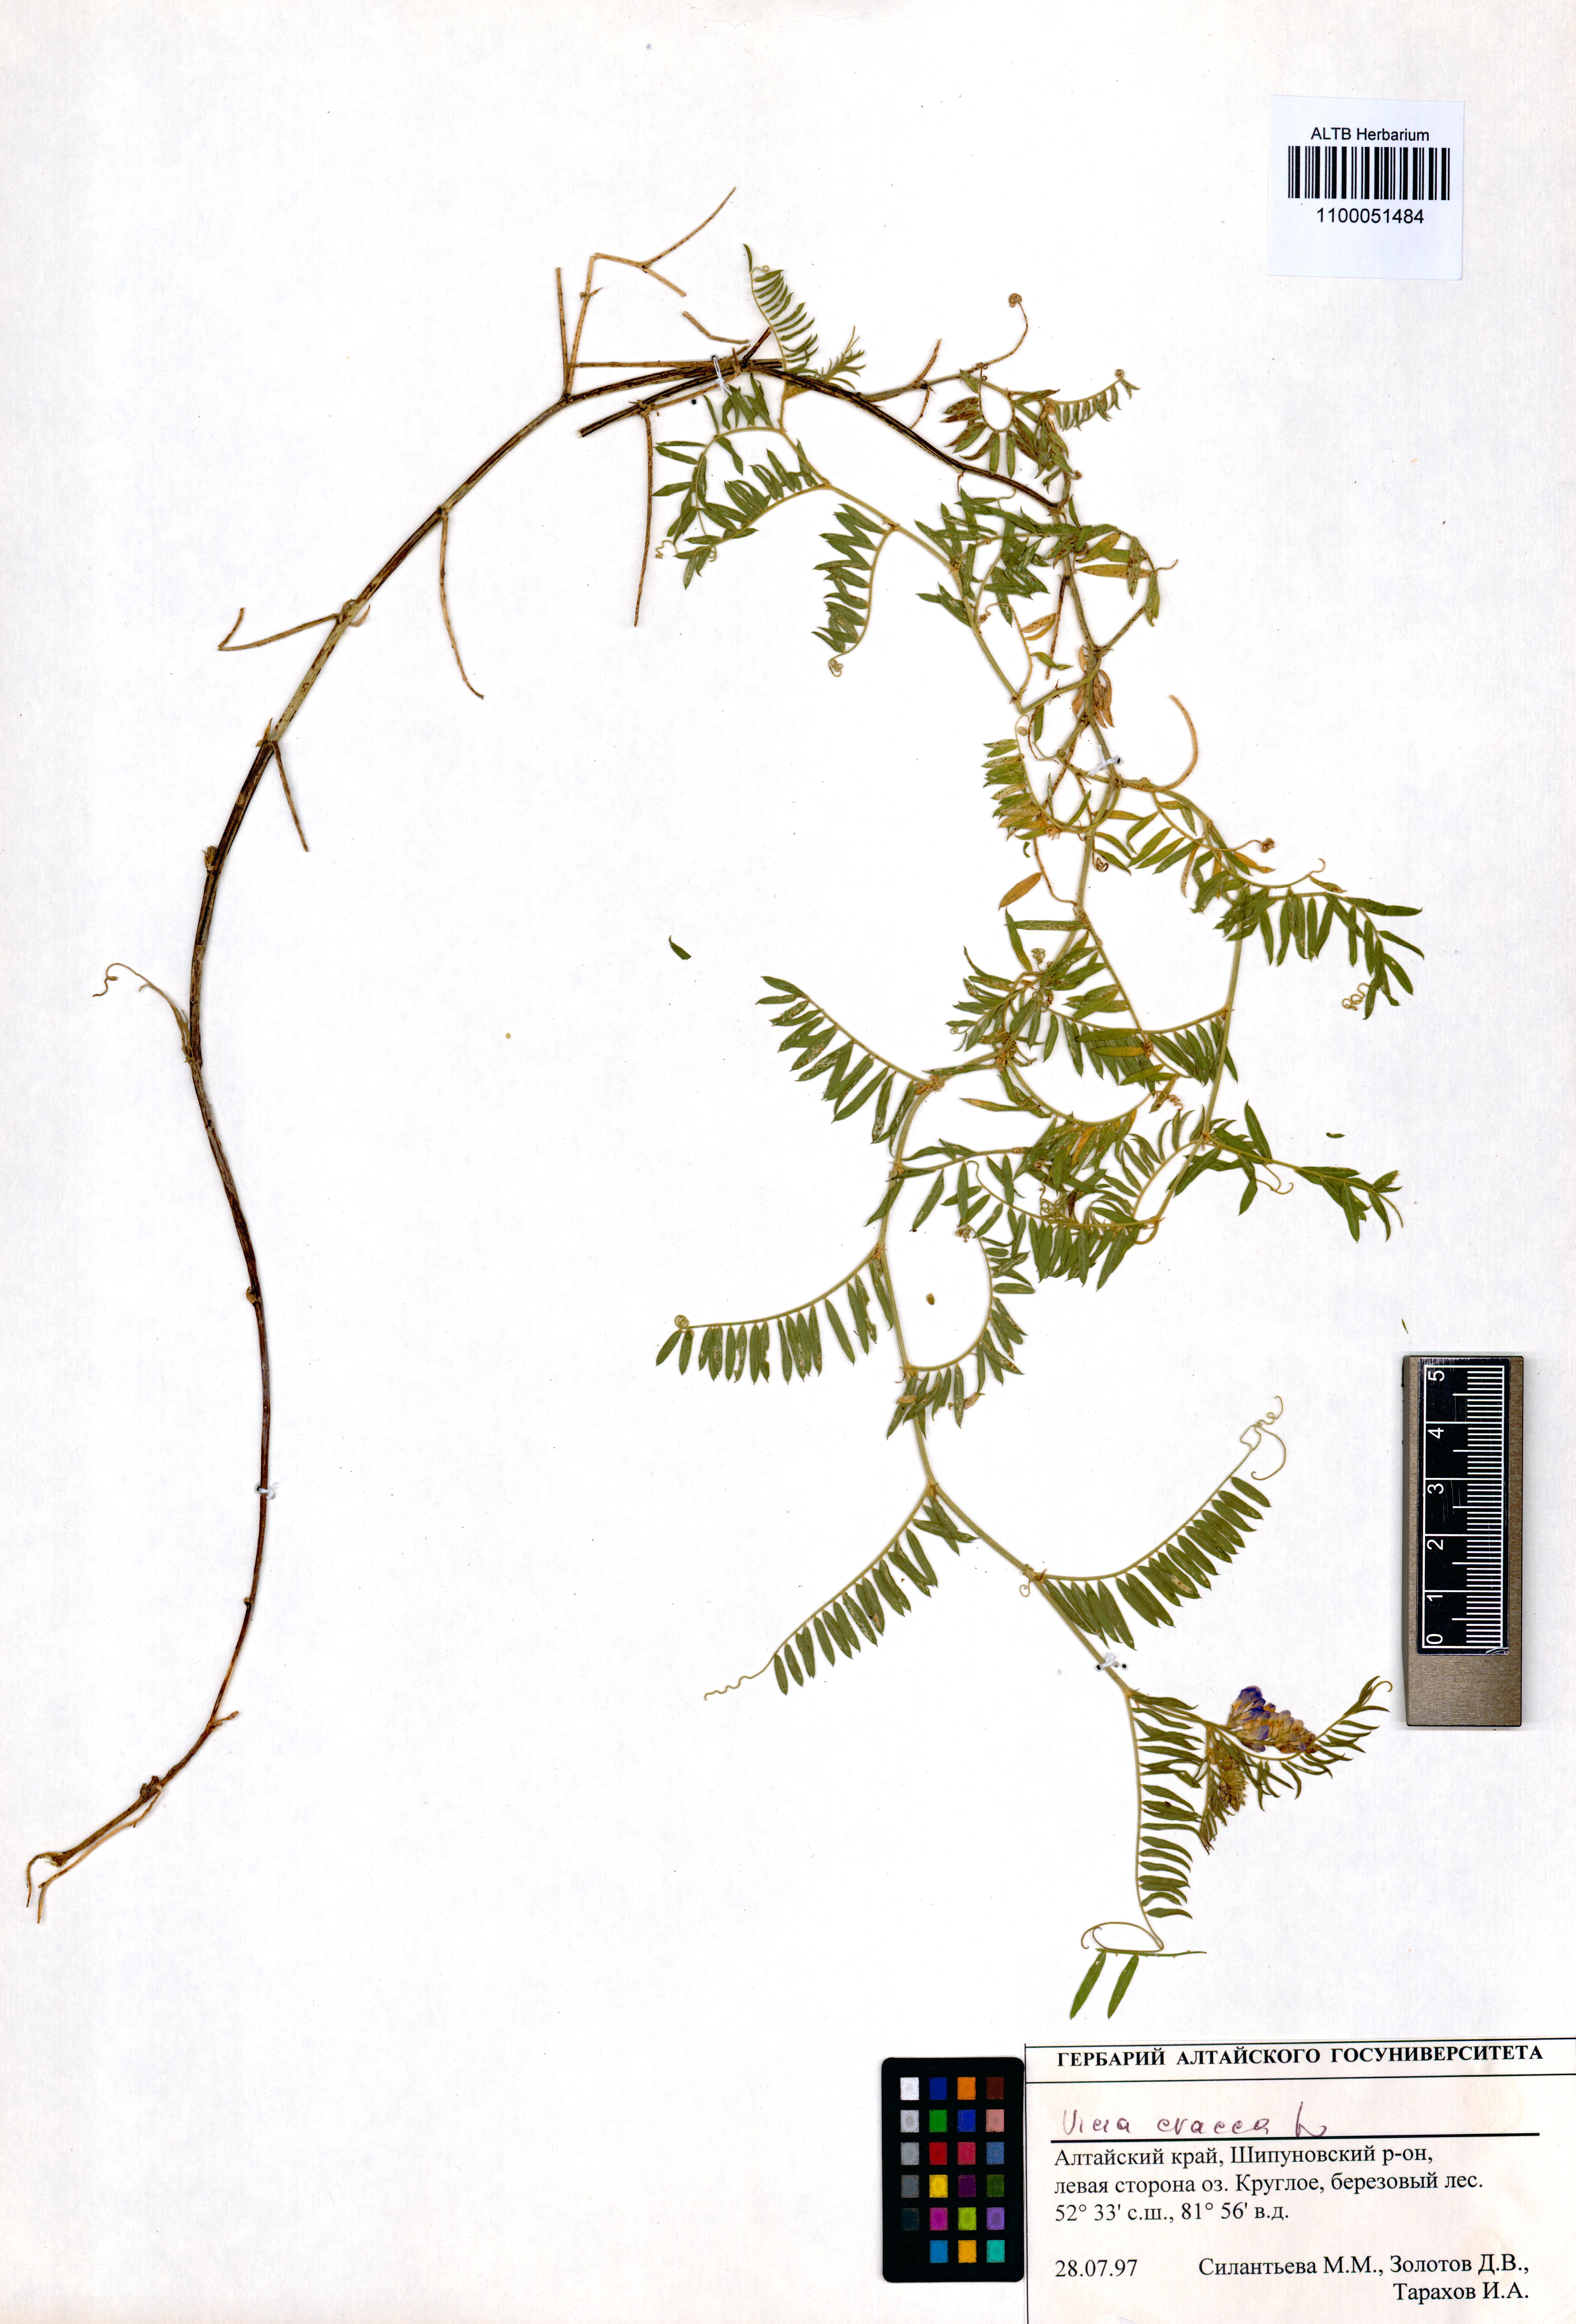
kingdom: Plantae
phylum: Tracheophyta
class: Magnoliopsida
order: Fabales
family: Fabaceae
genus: Vicia
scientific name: Vicia cracca
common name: Bird vetch
